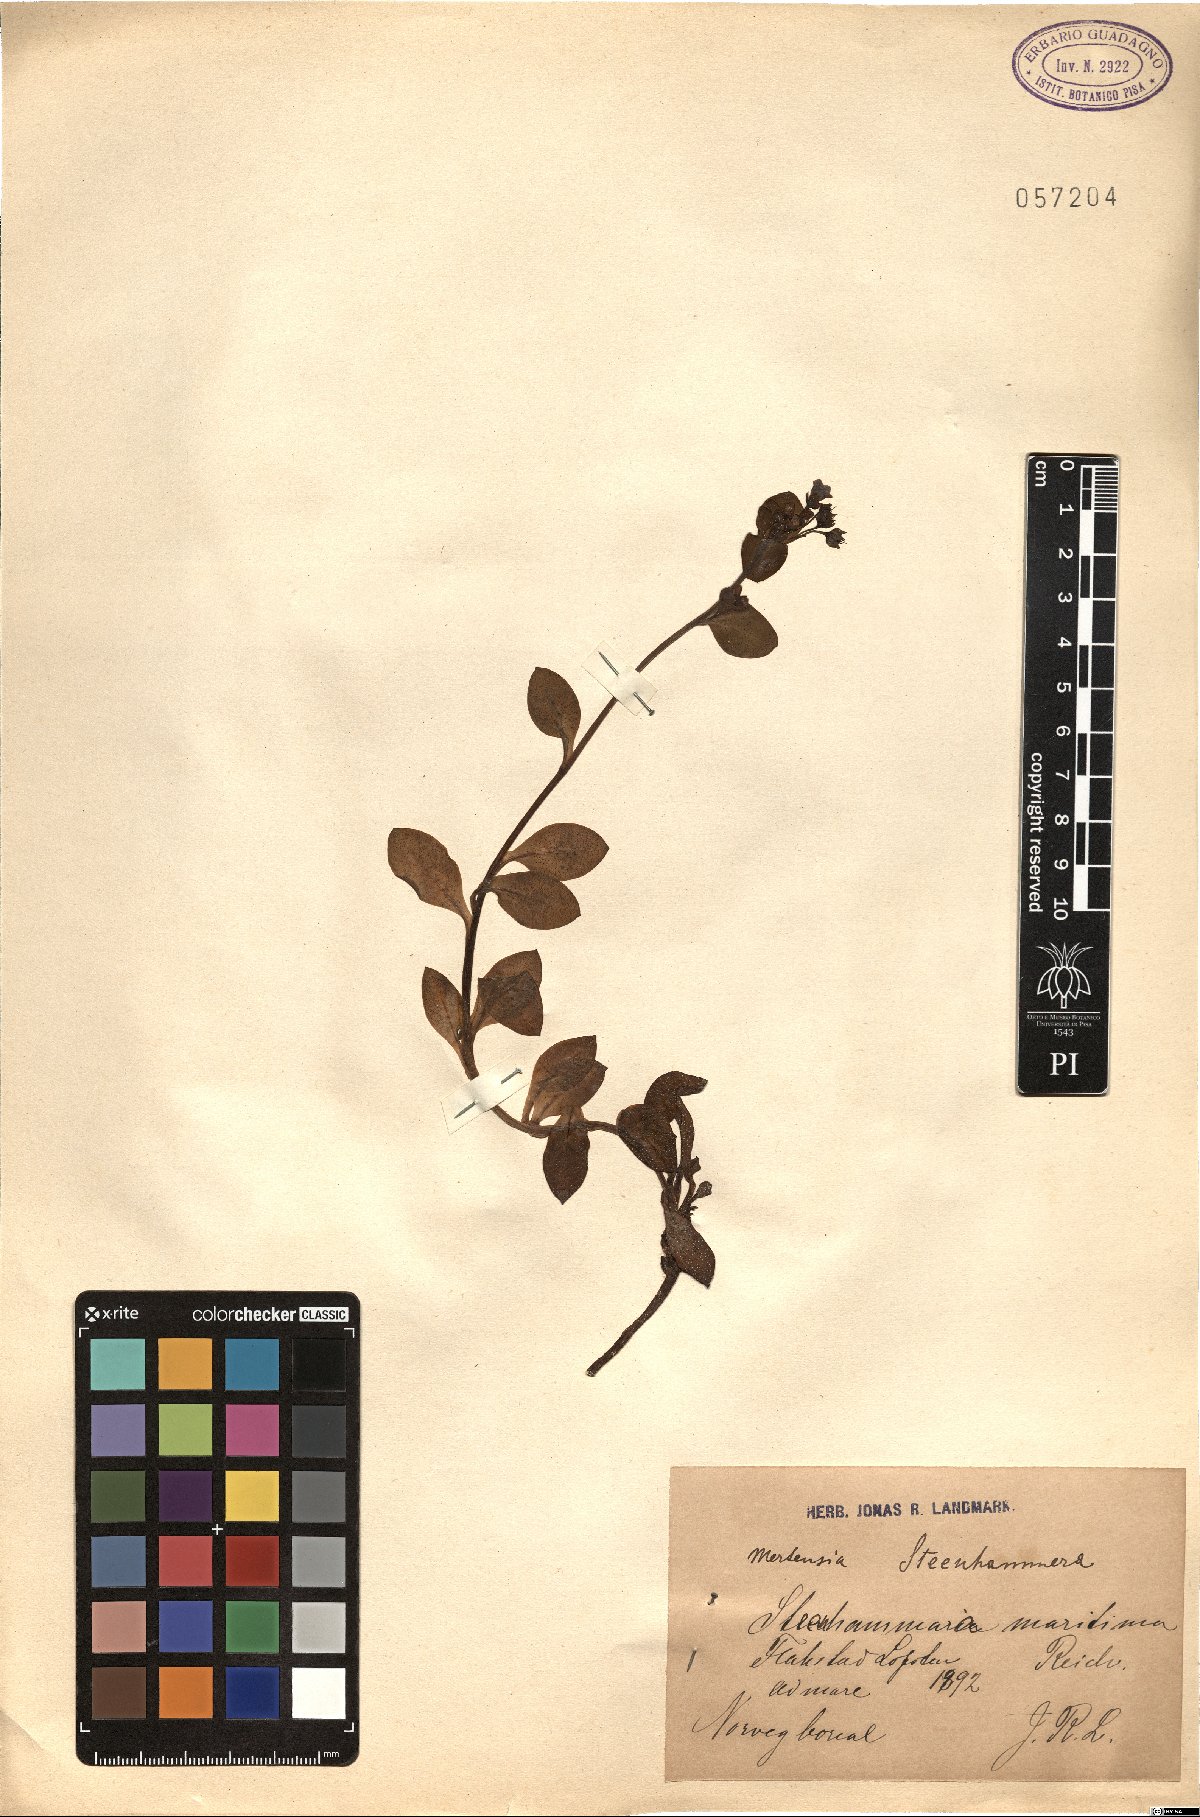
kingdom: Plantae
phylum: Tracheophyta
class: Magnoliopsida
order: Boraginales
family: Boraginaceae
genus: Mertensia
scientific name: Mertensia maritima
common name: Oysterplant
